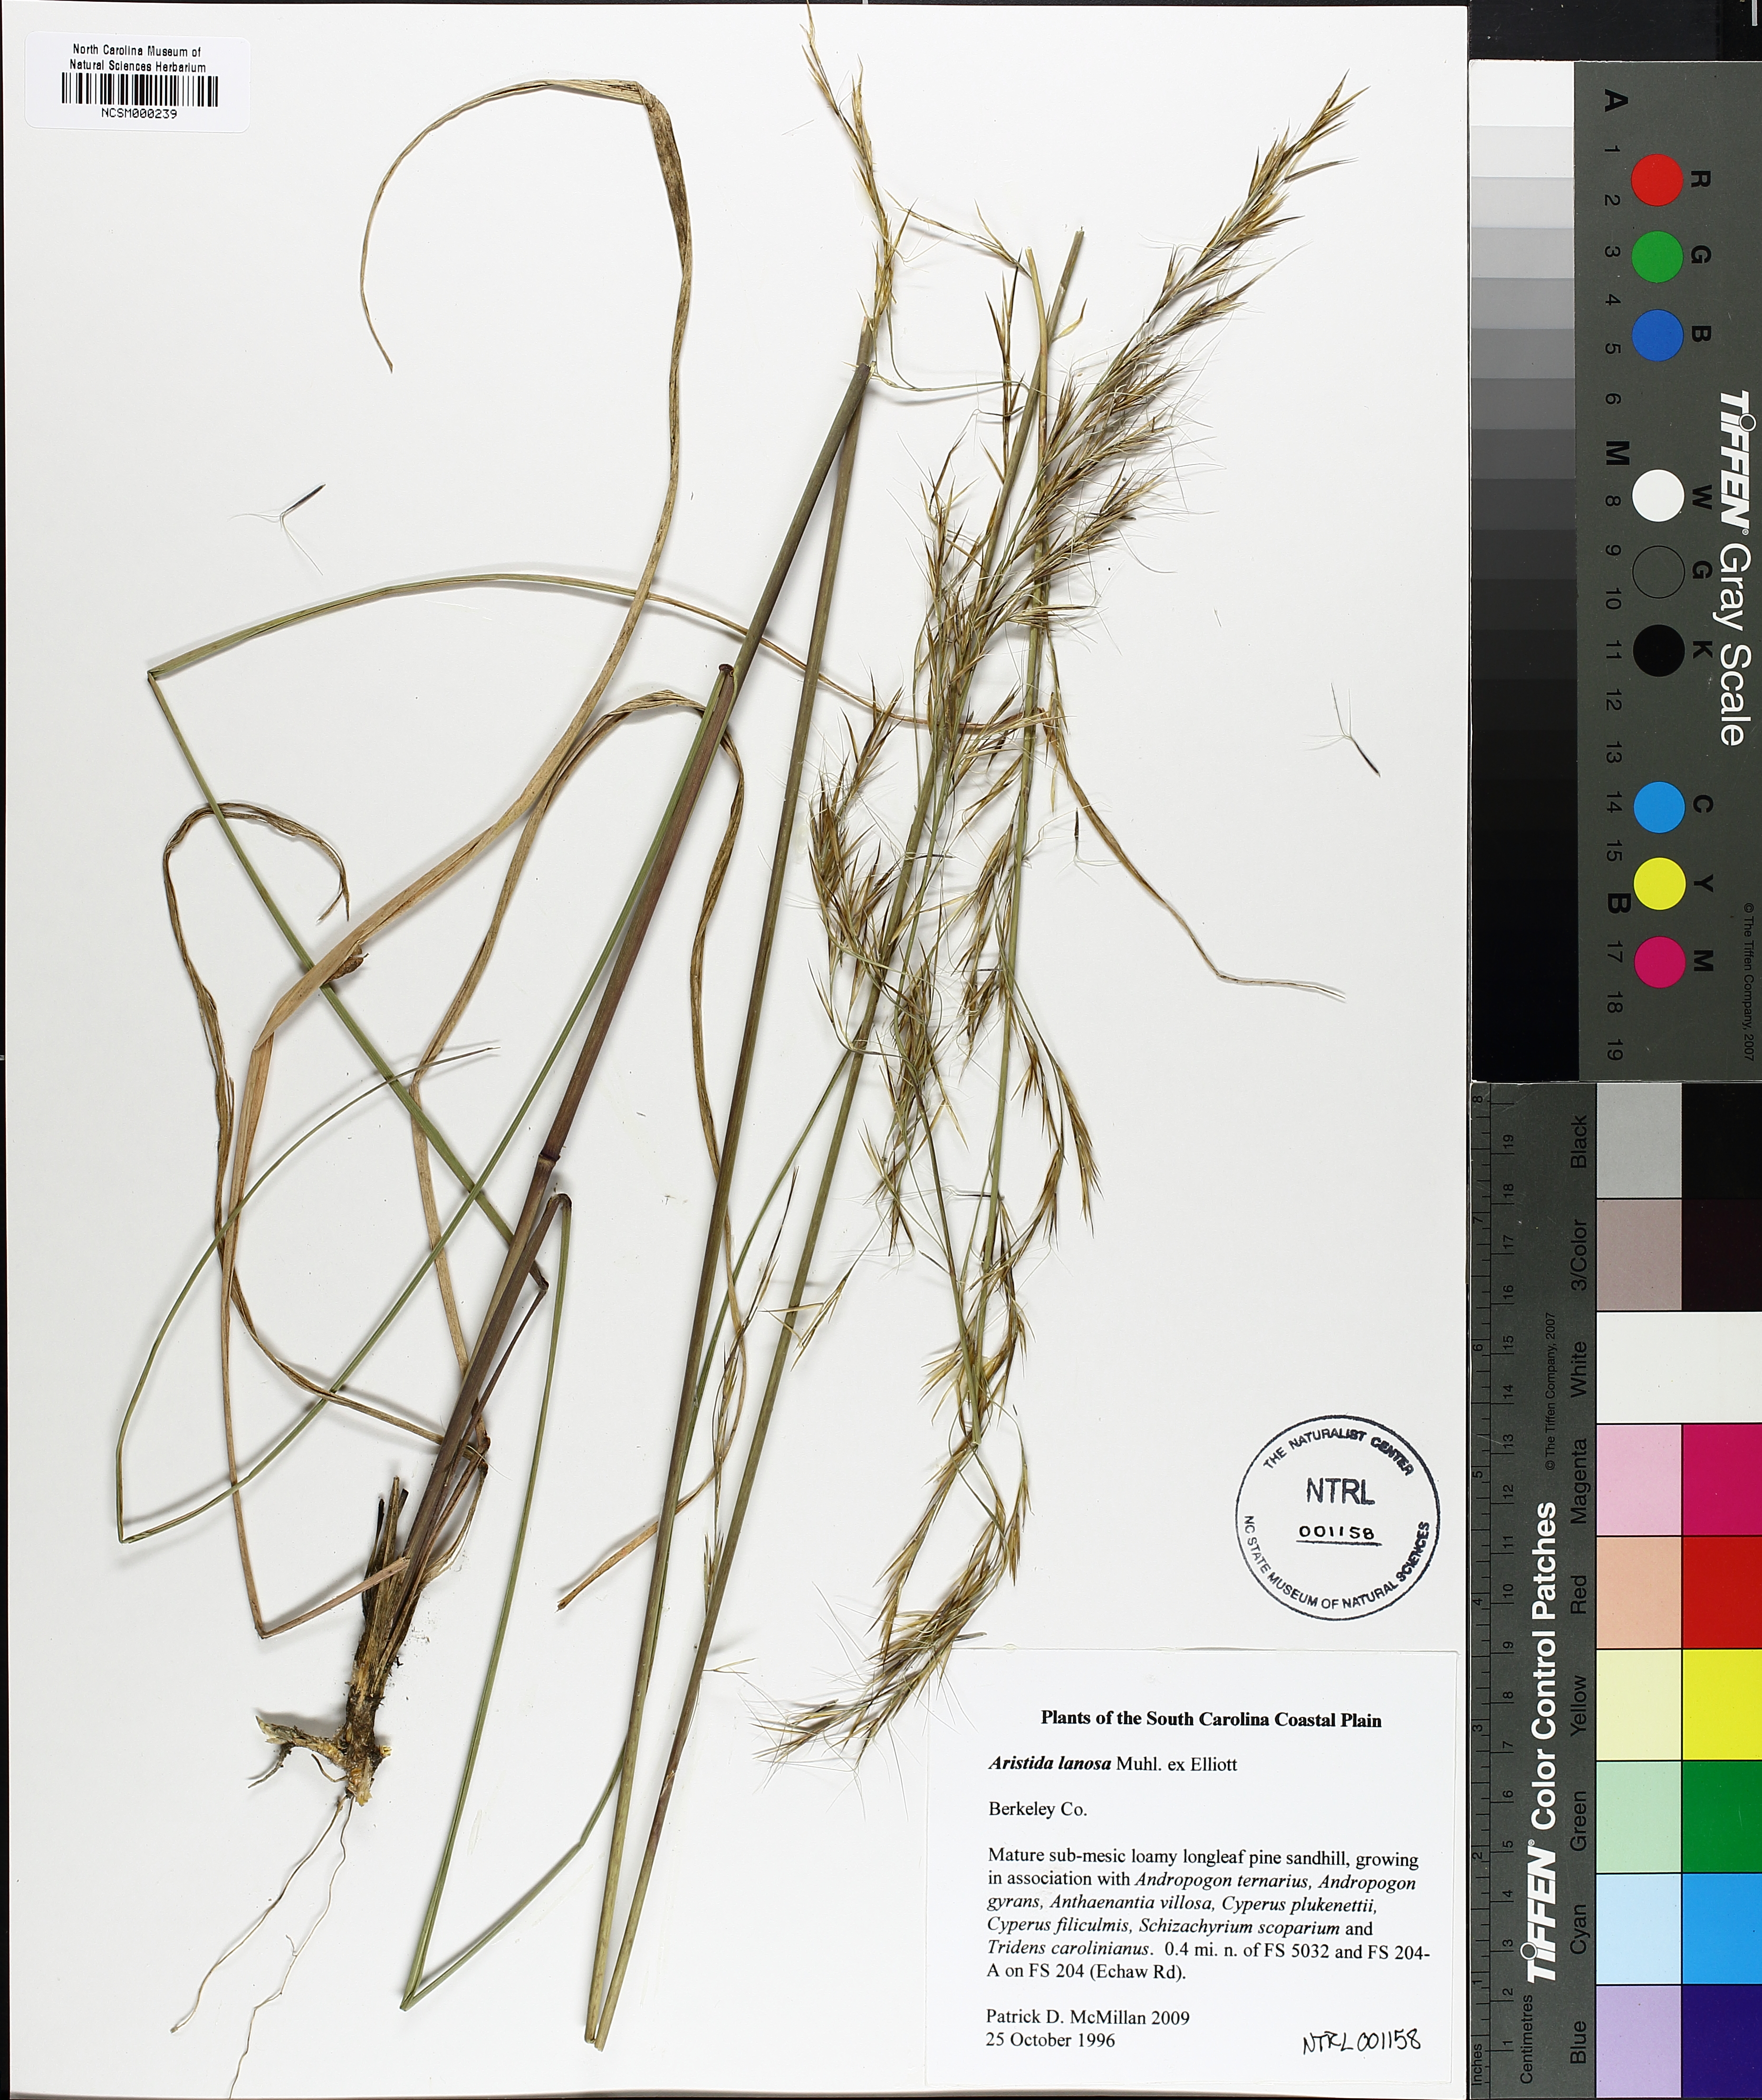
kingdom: Plantae
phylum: Tracheophyta
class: Liliopsida
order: Poales
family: Poaceae
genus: Aristida
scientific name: Aristida lanosa
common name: Woolly three-awn
